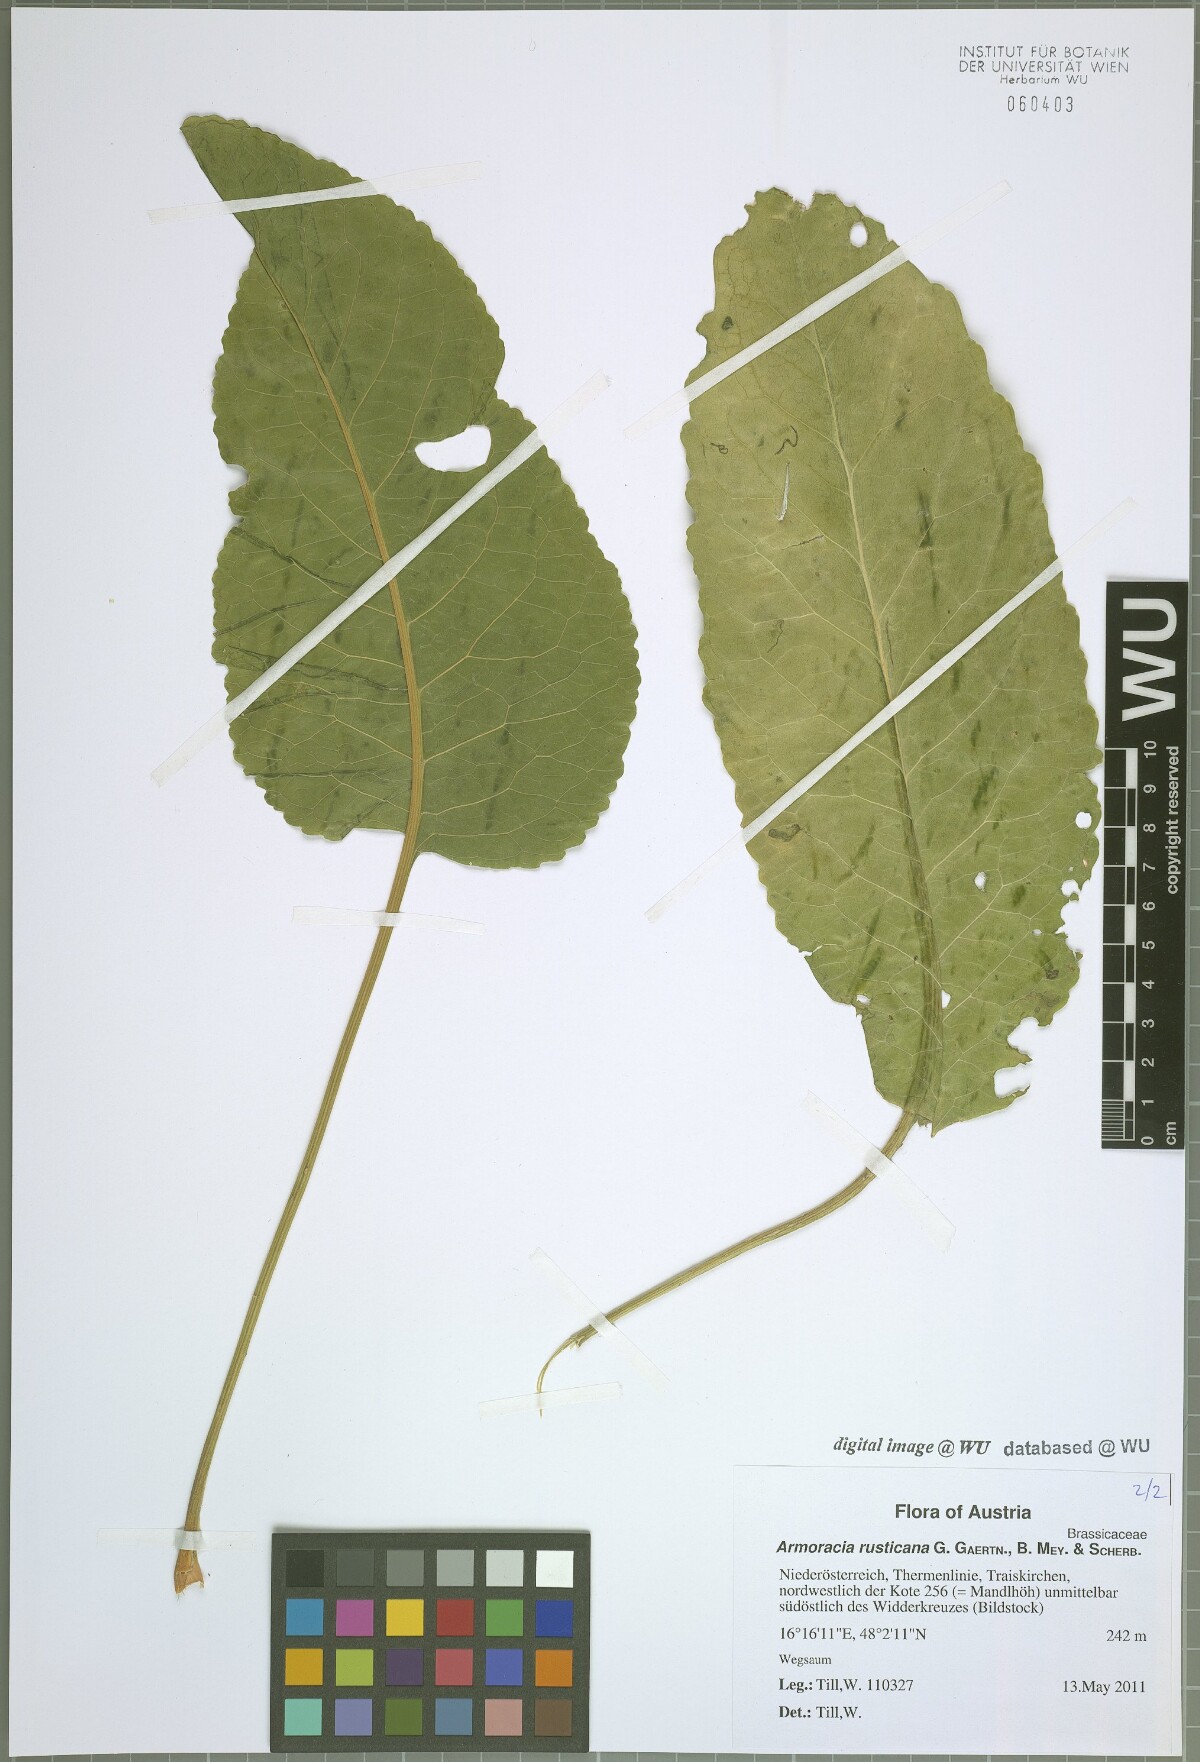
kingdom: Plantae
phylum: Tracheophyta
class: Magnoliopsida
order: Brassicales
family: Brassicaceae
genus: Armoracia
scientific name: Armoracia rusticana
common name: Horseradish
